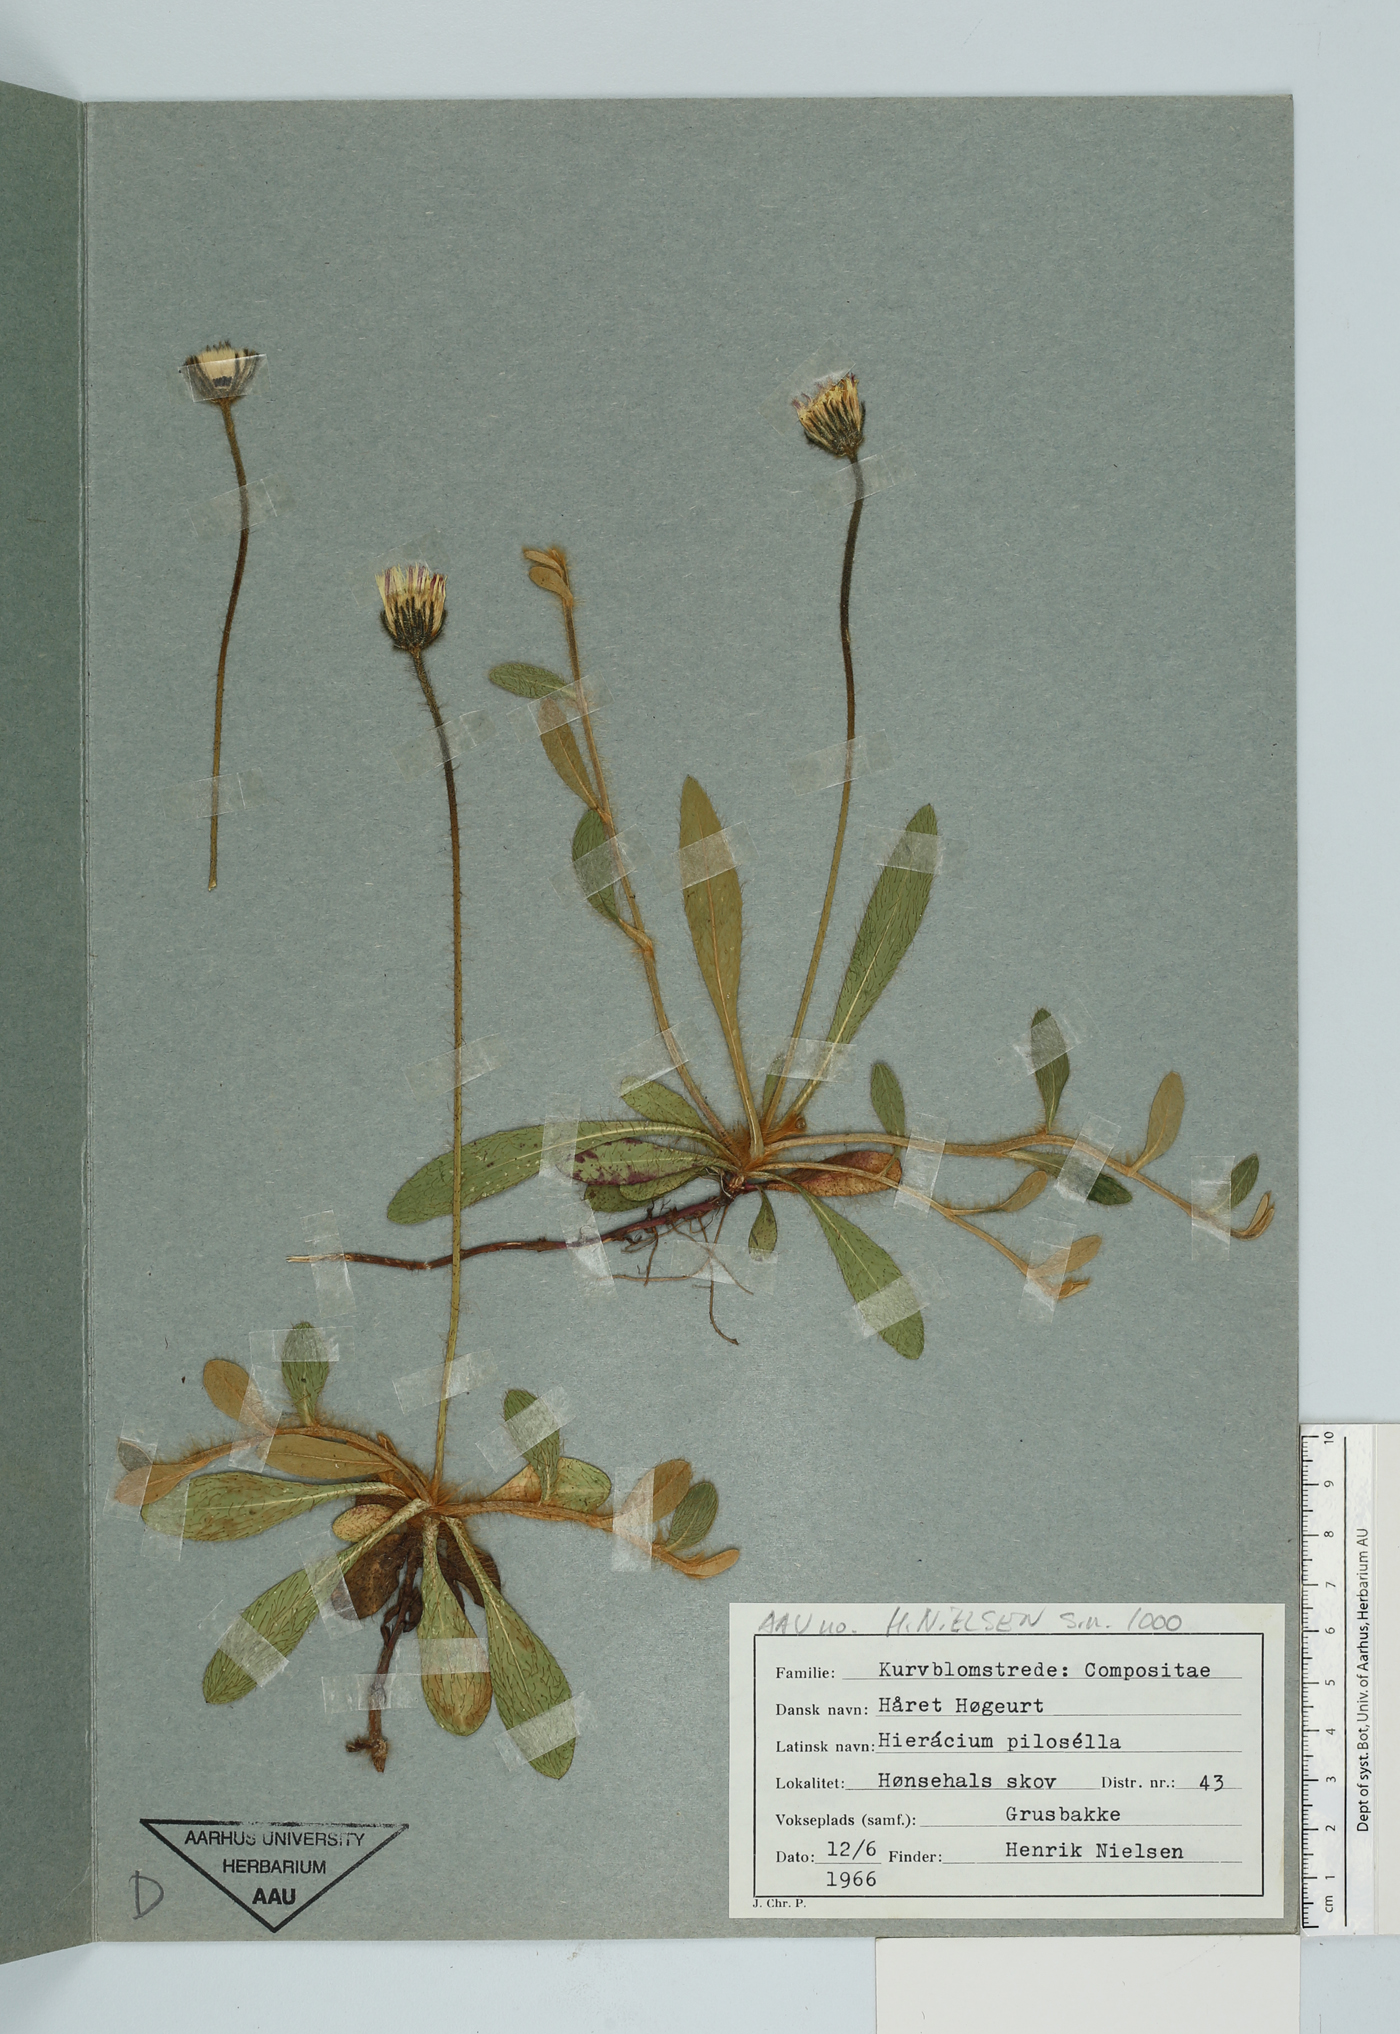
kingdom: Plantae
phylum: Tracheophyta
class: Magnoliopsida
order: Asterales
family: Asteraceae
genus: Pilosella
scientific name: Pilosella officinarum
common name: Mouse-ear hawkweed
